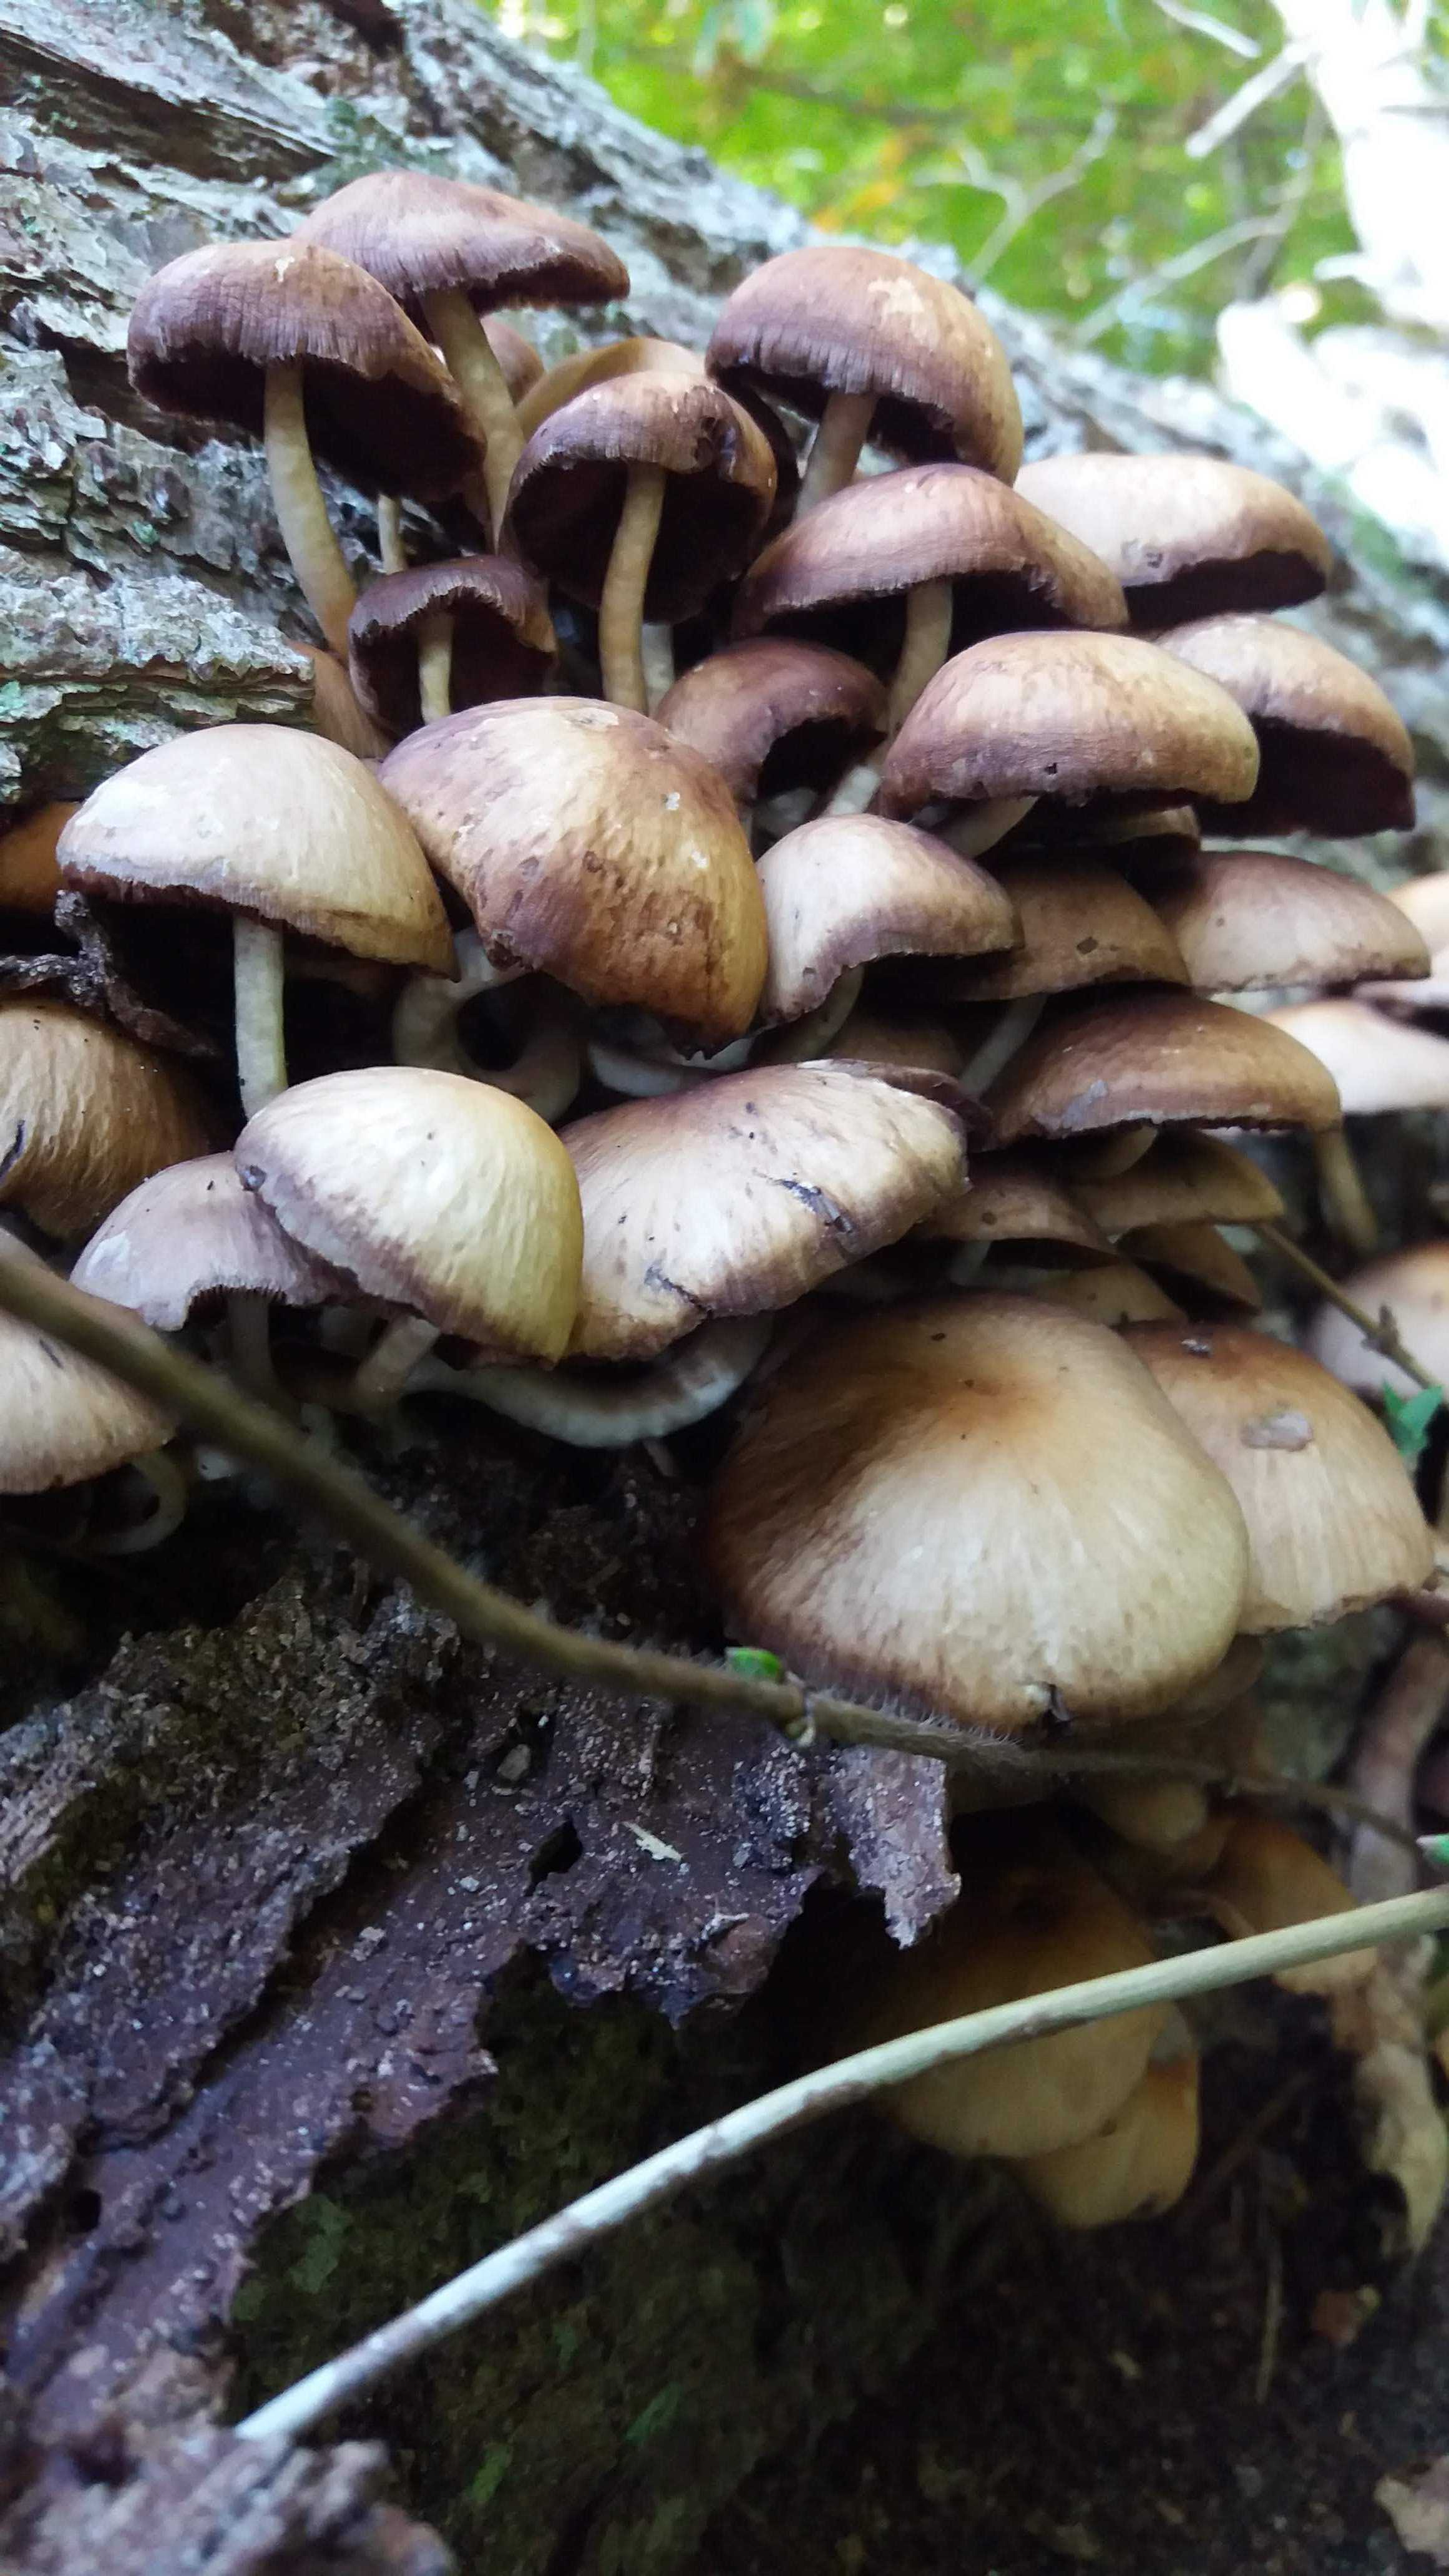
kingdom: Fungi
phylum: Basidiomycota
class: Agaricomycetes
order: Agaricales
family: Psathyrellaceae
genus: Psathyrella
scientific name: Psathyrella piluliformis
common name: lysstokket mørkhat
